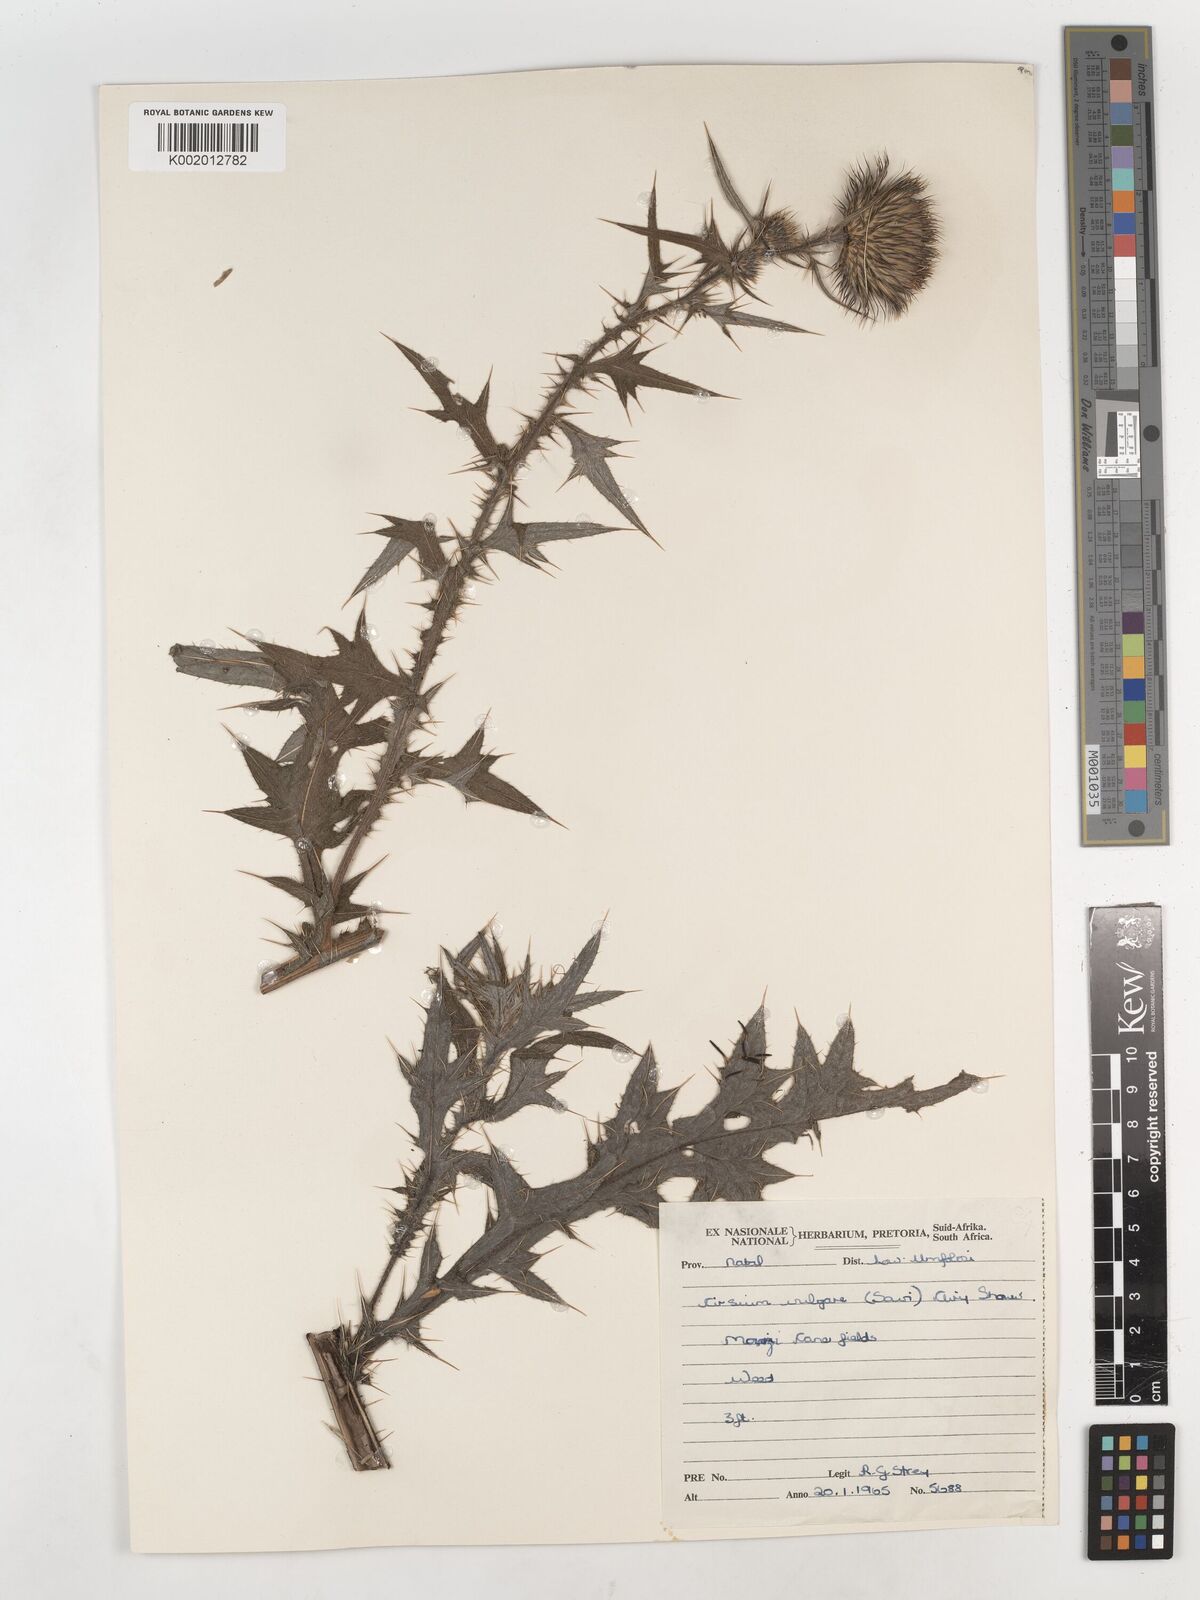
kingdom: Plantae
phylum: Tracheophyta
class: Magnoliopsida
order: Asterales
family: Asteraceae
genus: Cirsium
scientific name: Cirsium vulgare
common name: Bull thistle
